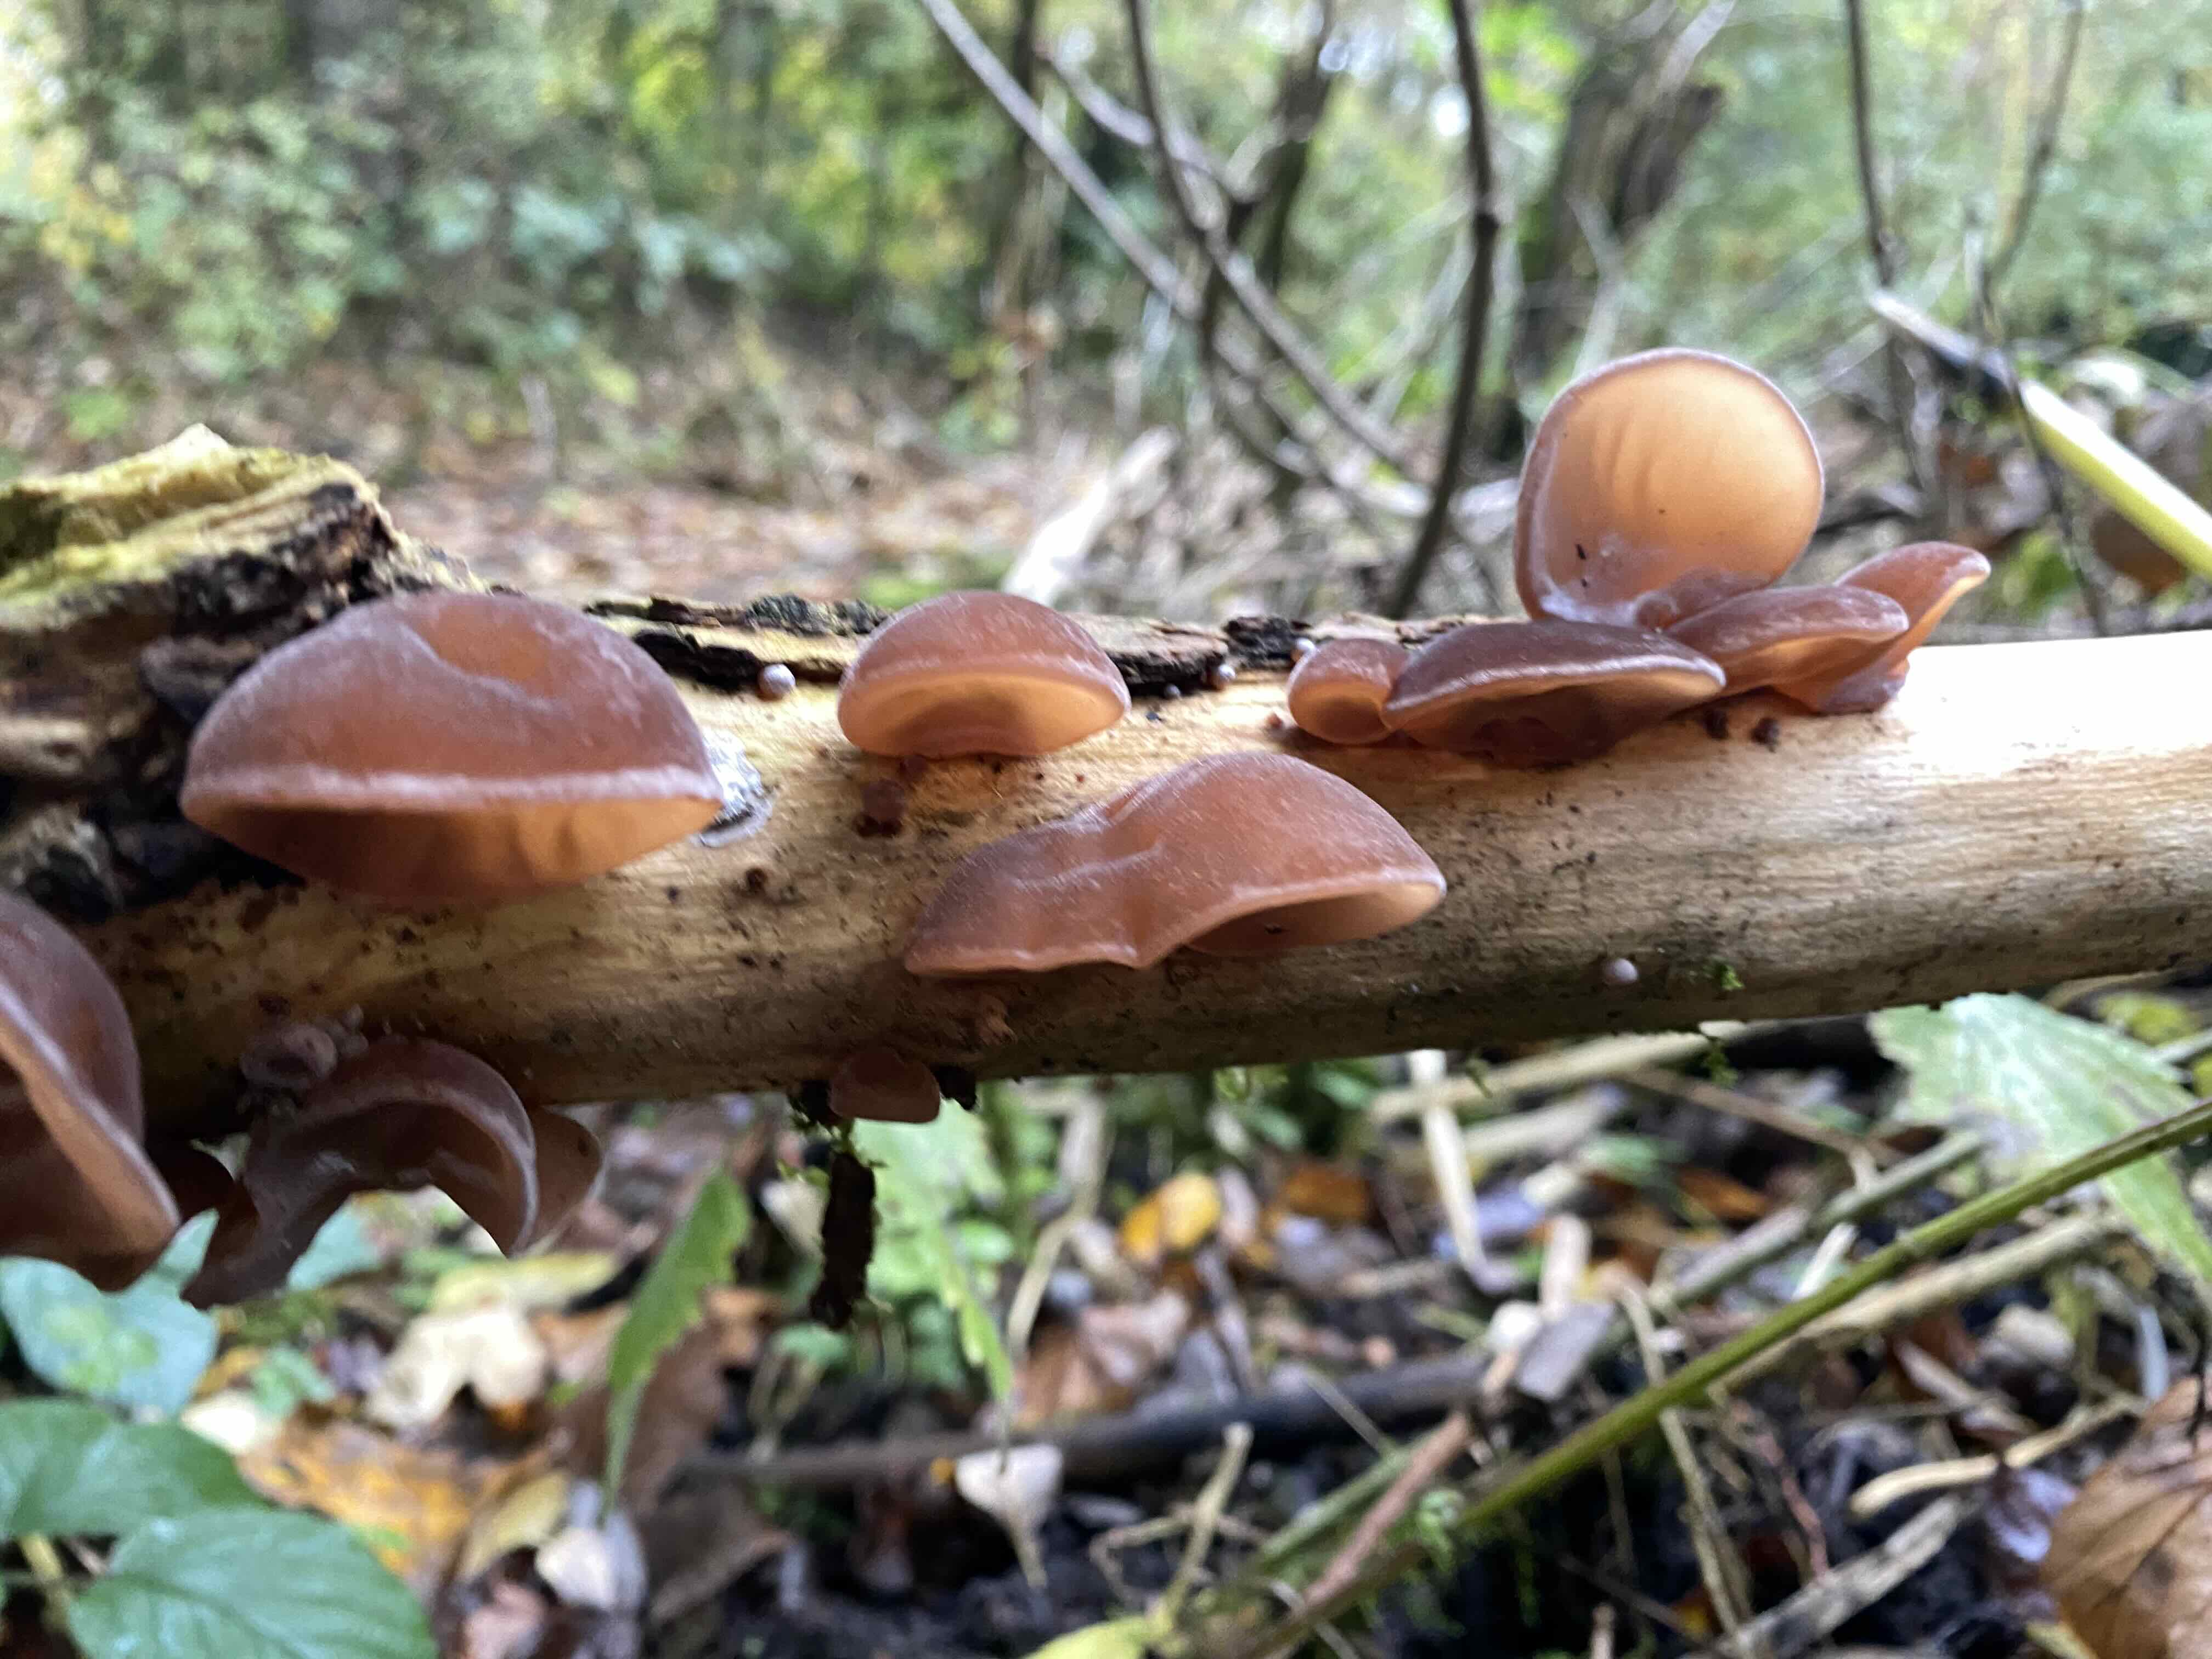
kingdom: Fungi
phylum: Basidiomycota
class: Agaricomycetes
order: Auriculariales
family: Auriculariaceae
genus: Auricularia
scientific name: Auricularia auricula-judae
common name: almindelig judasøre
